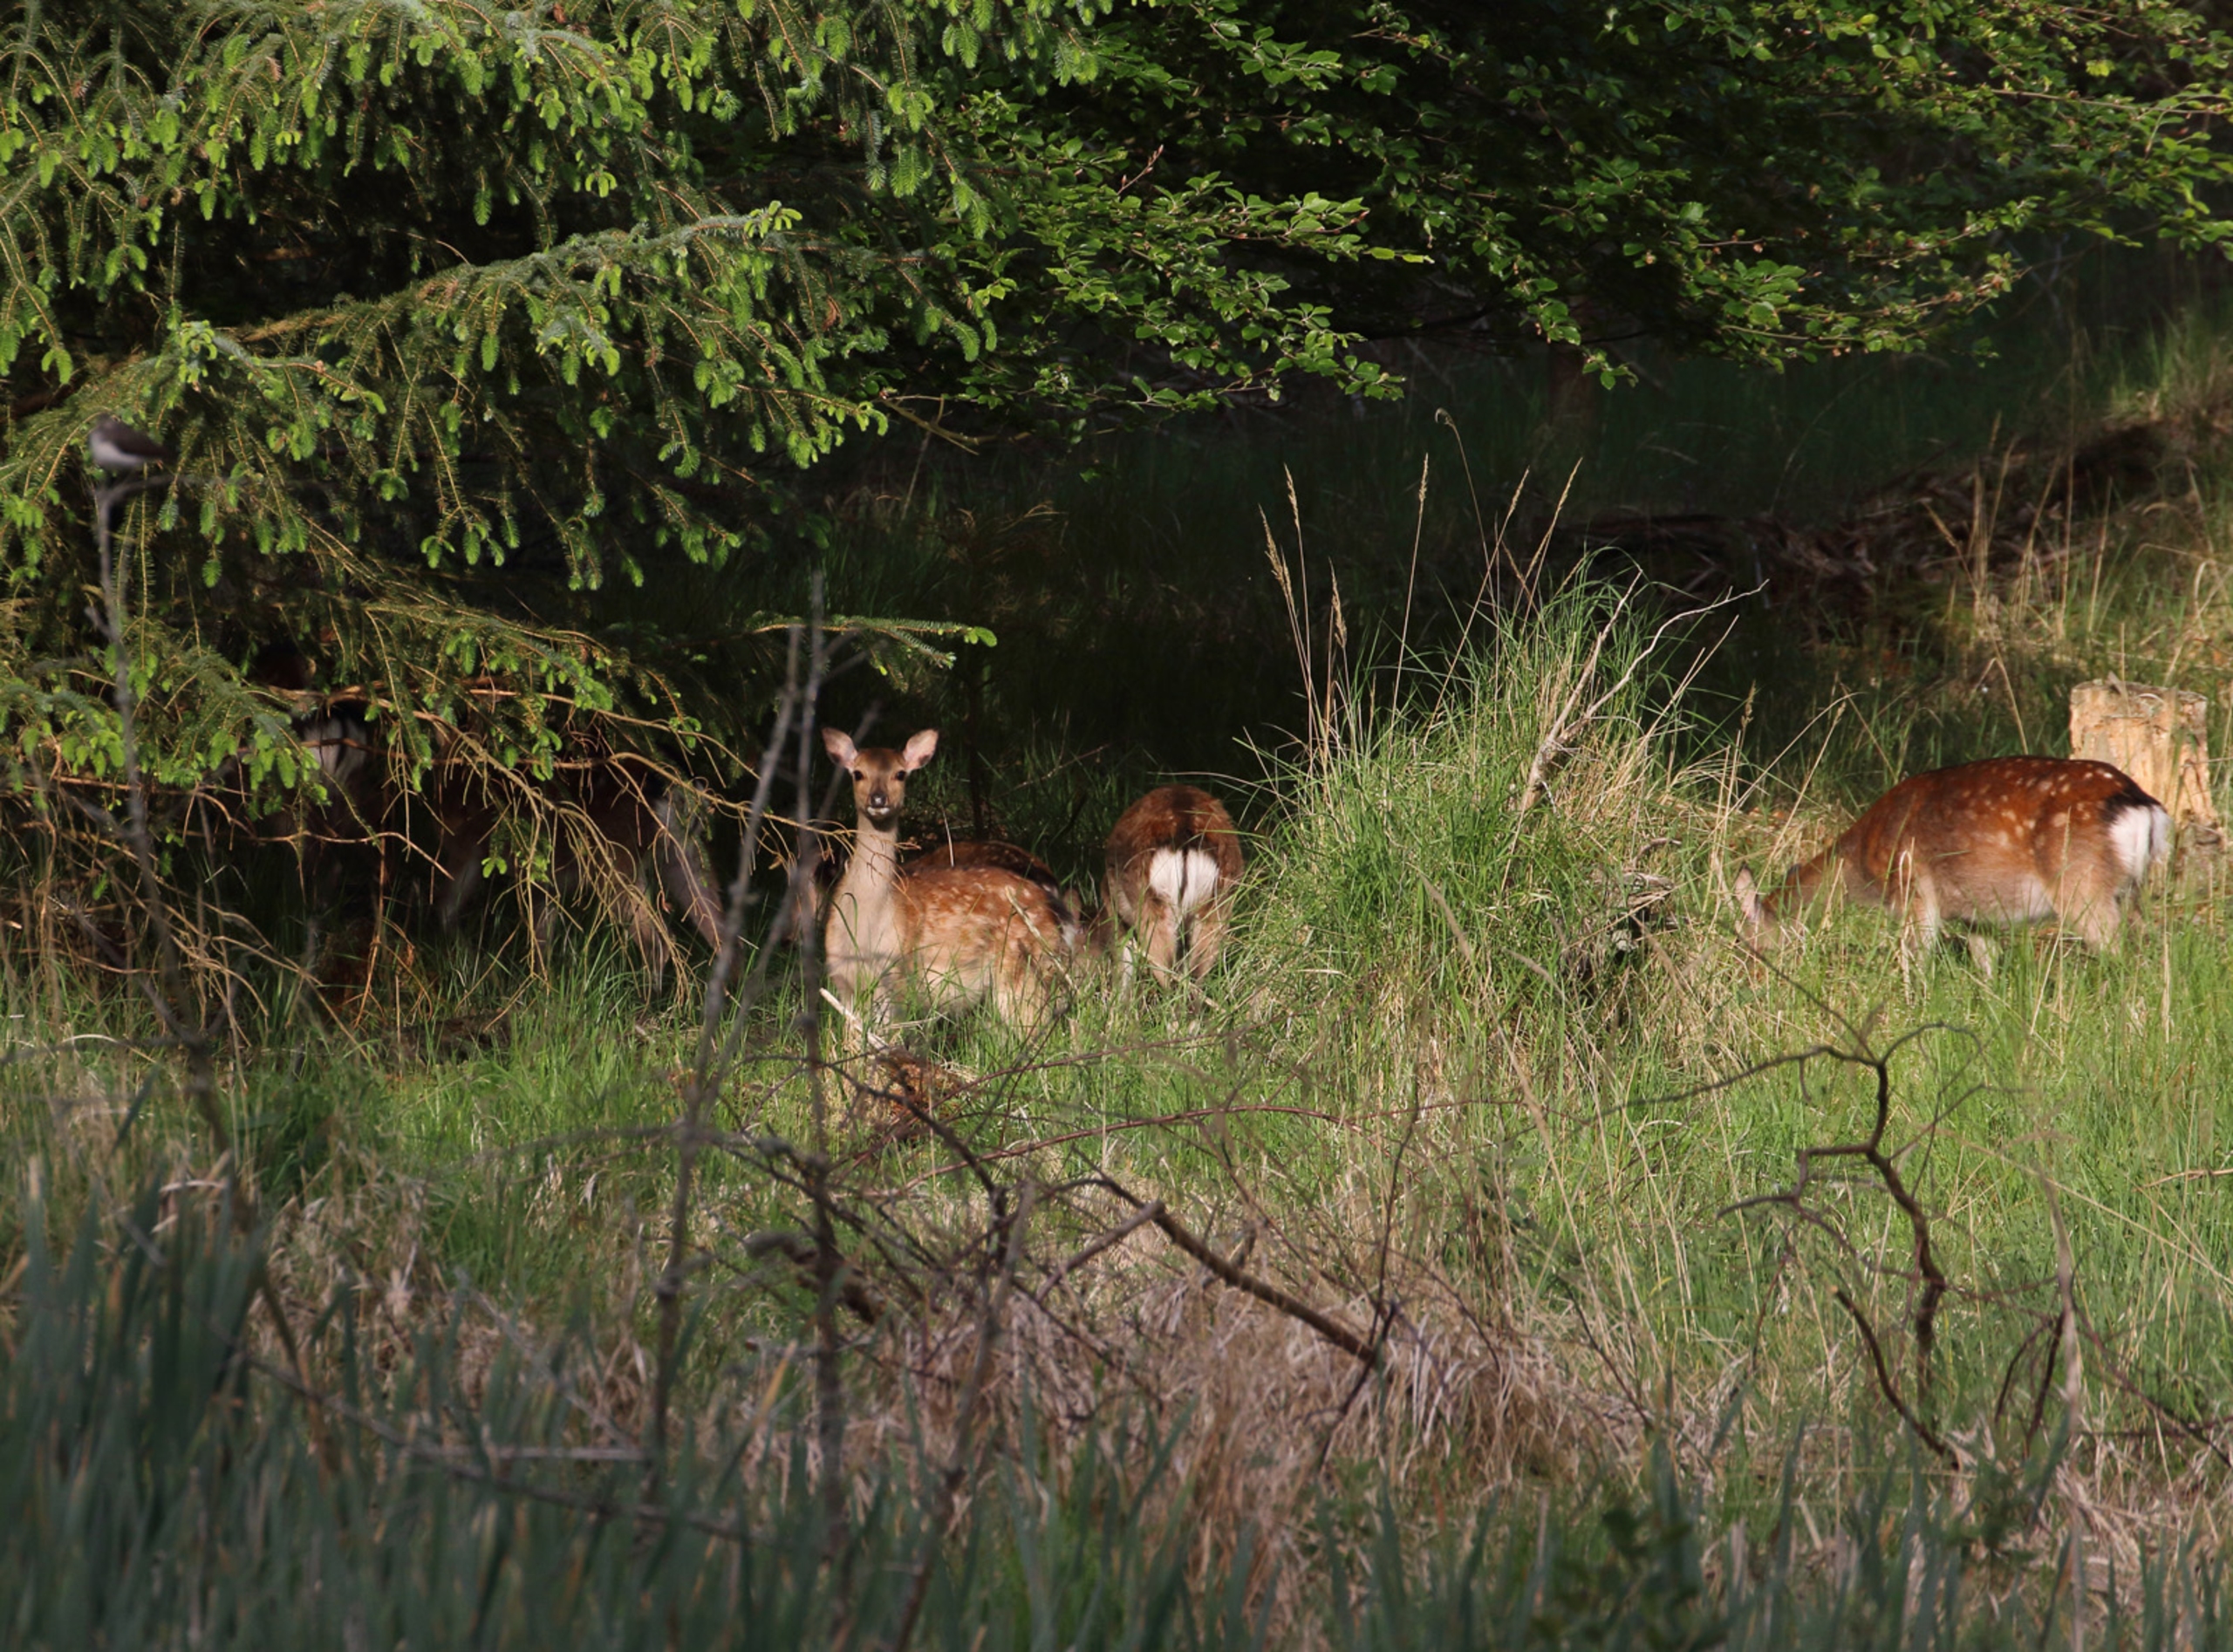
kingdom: Animalia
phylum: Chordata
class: Mammalia
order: Artiodactyla
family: Cervidae
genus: Cervus
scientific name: Cervus nippon
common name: Sika
